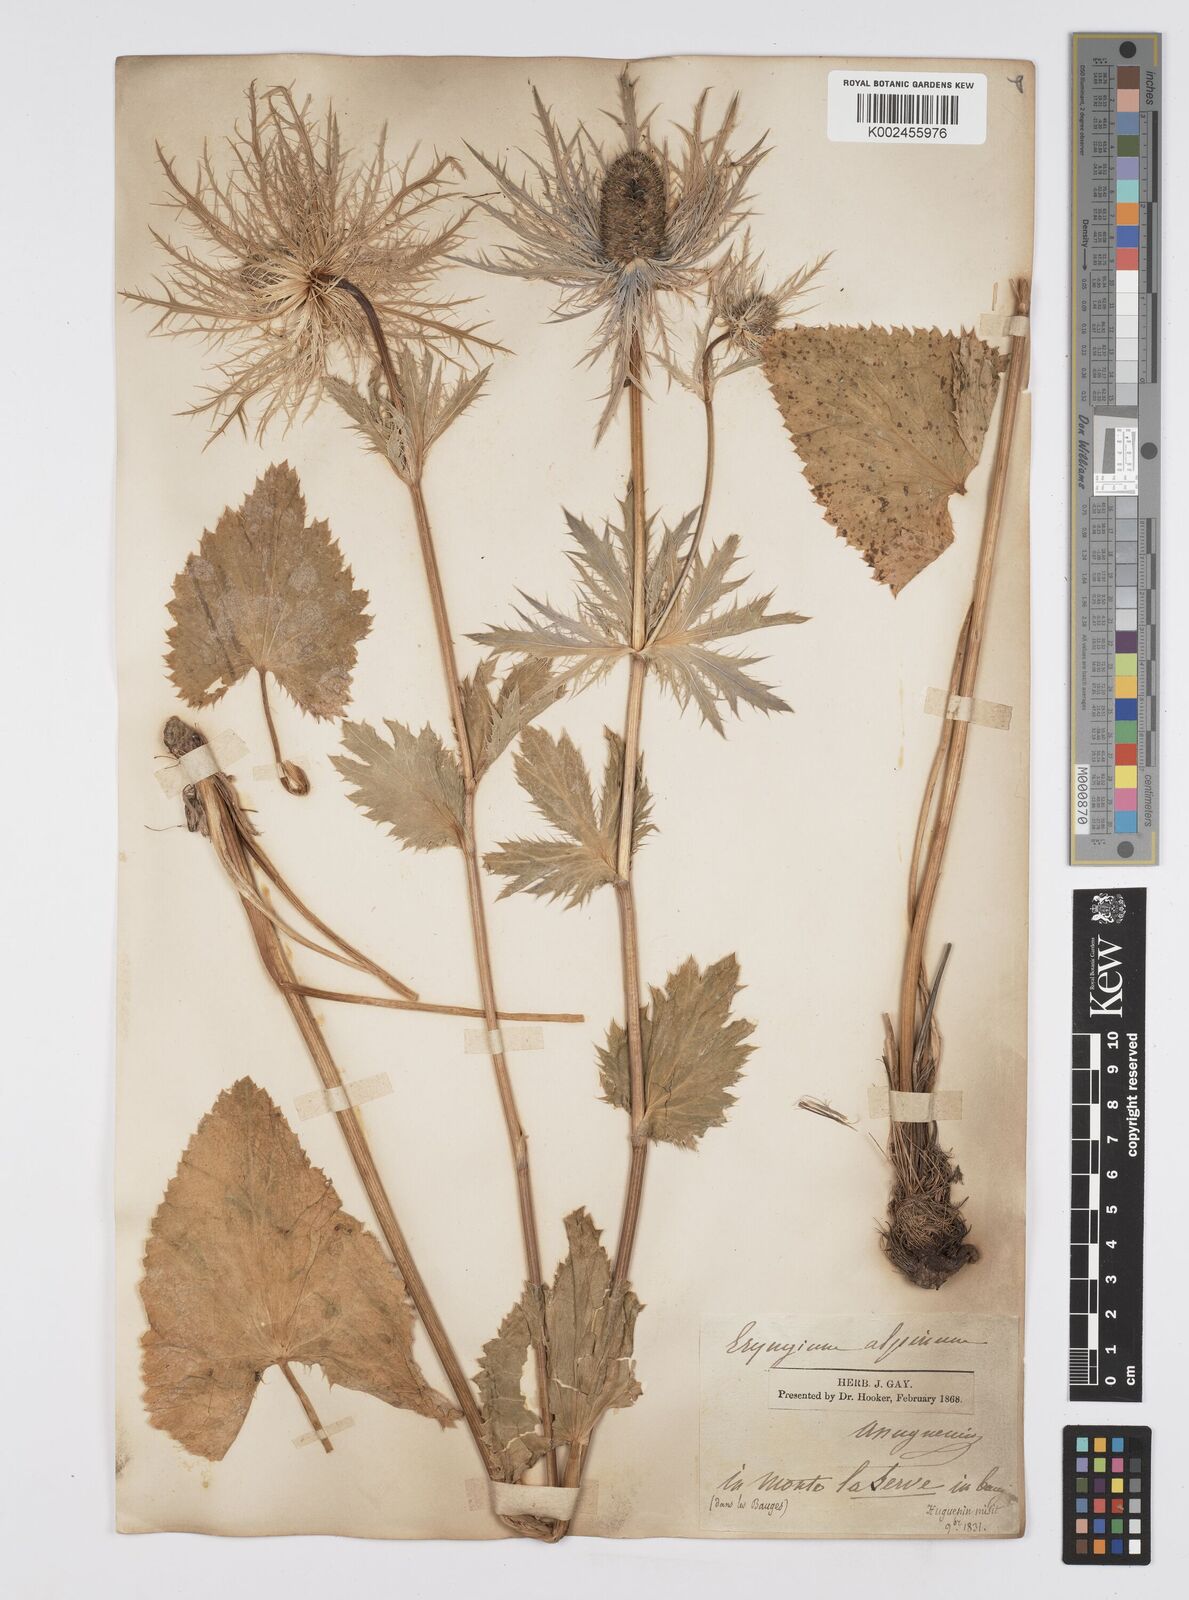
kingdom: Plantae
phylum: Tracheophyta
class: Magnoliopsida
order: Apiales
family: Apiaceae
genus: Eryngium
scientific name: Eryngium alpinum
